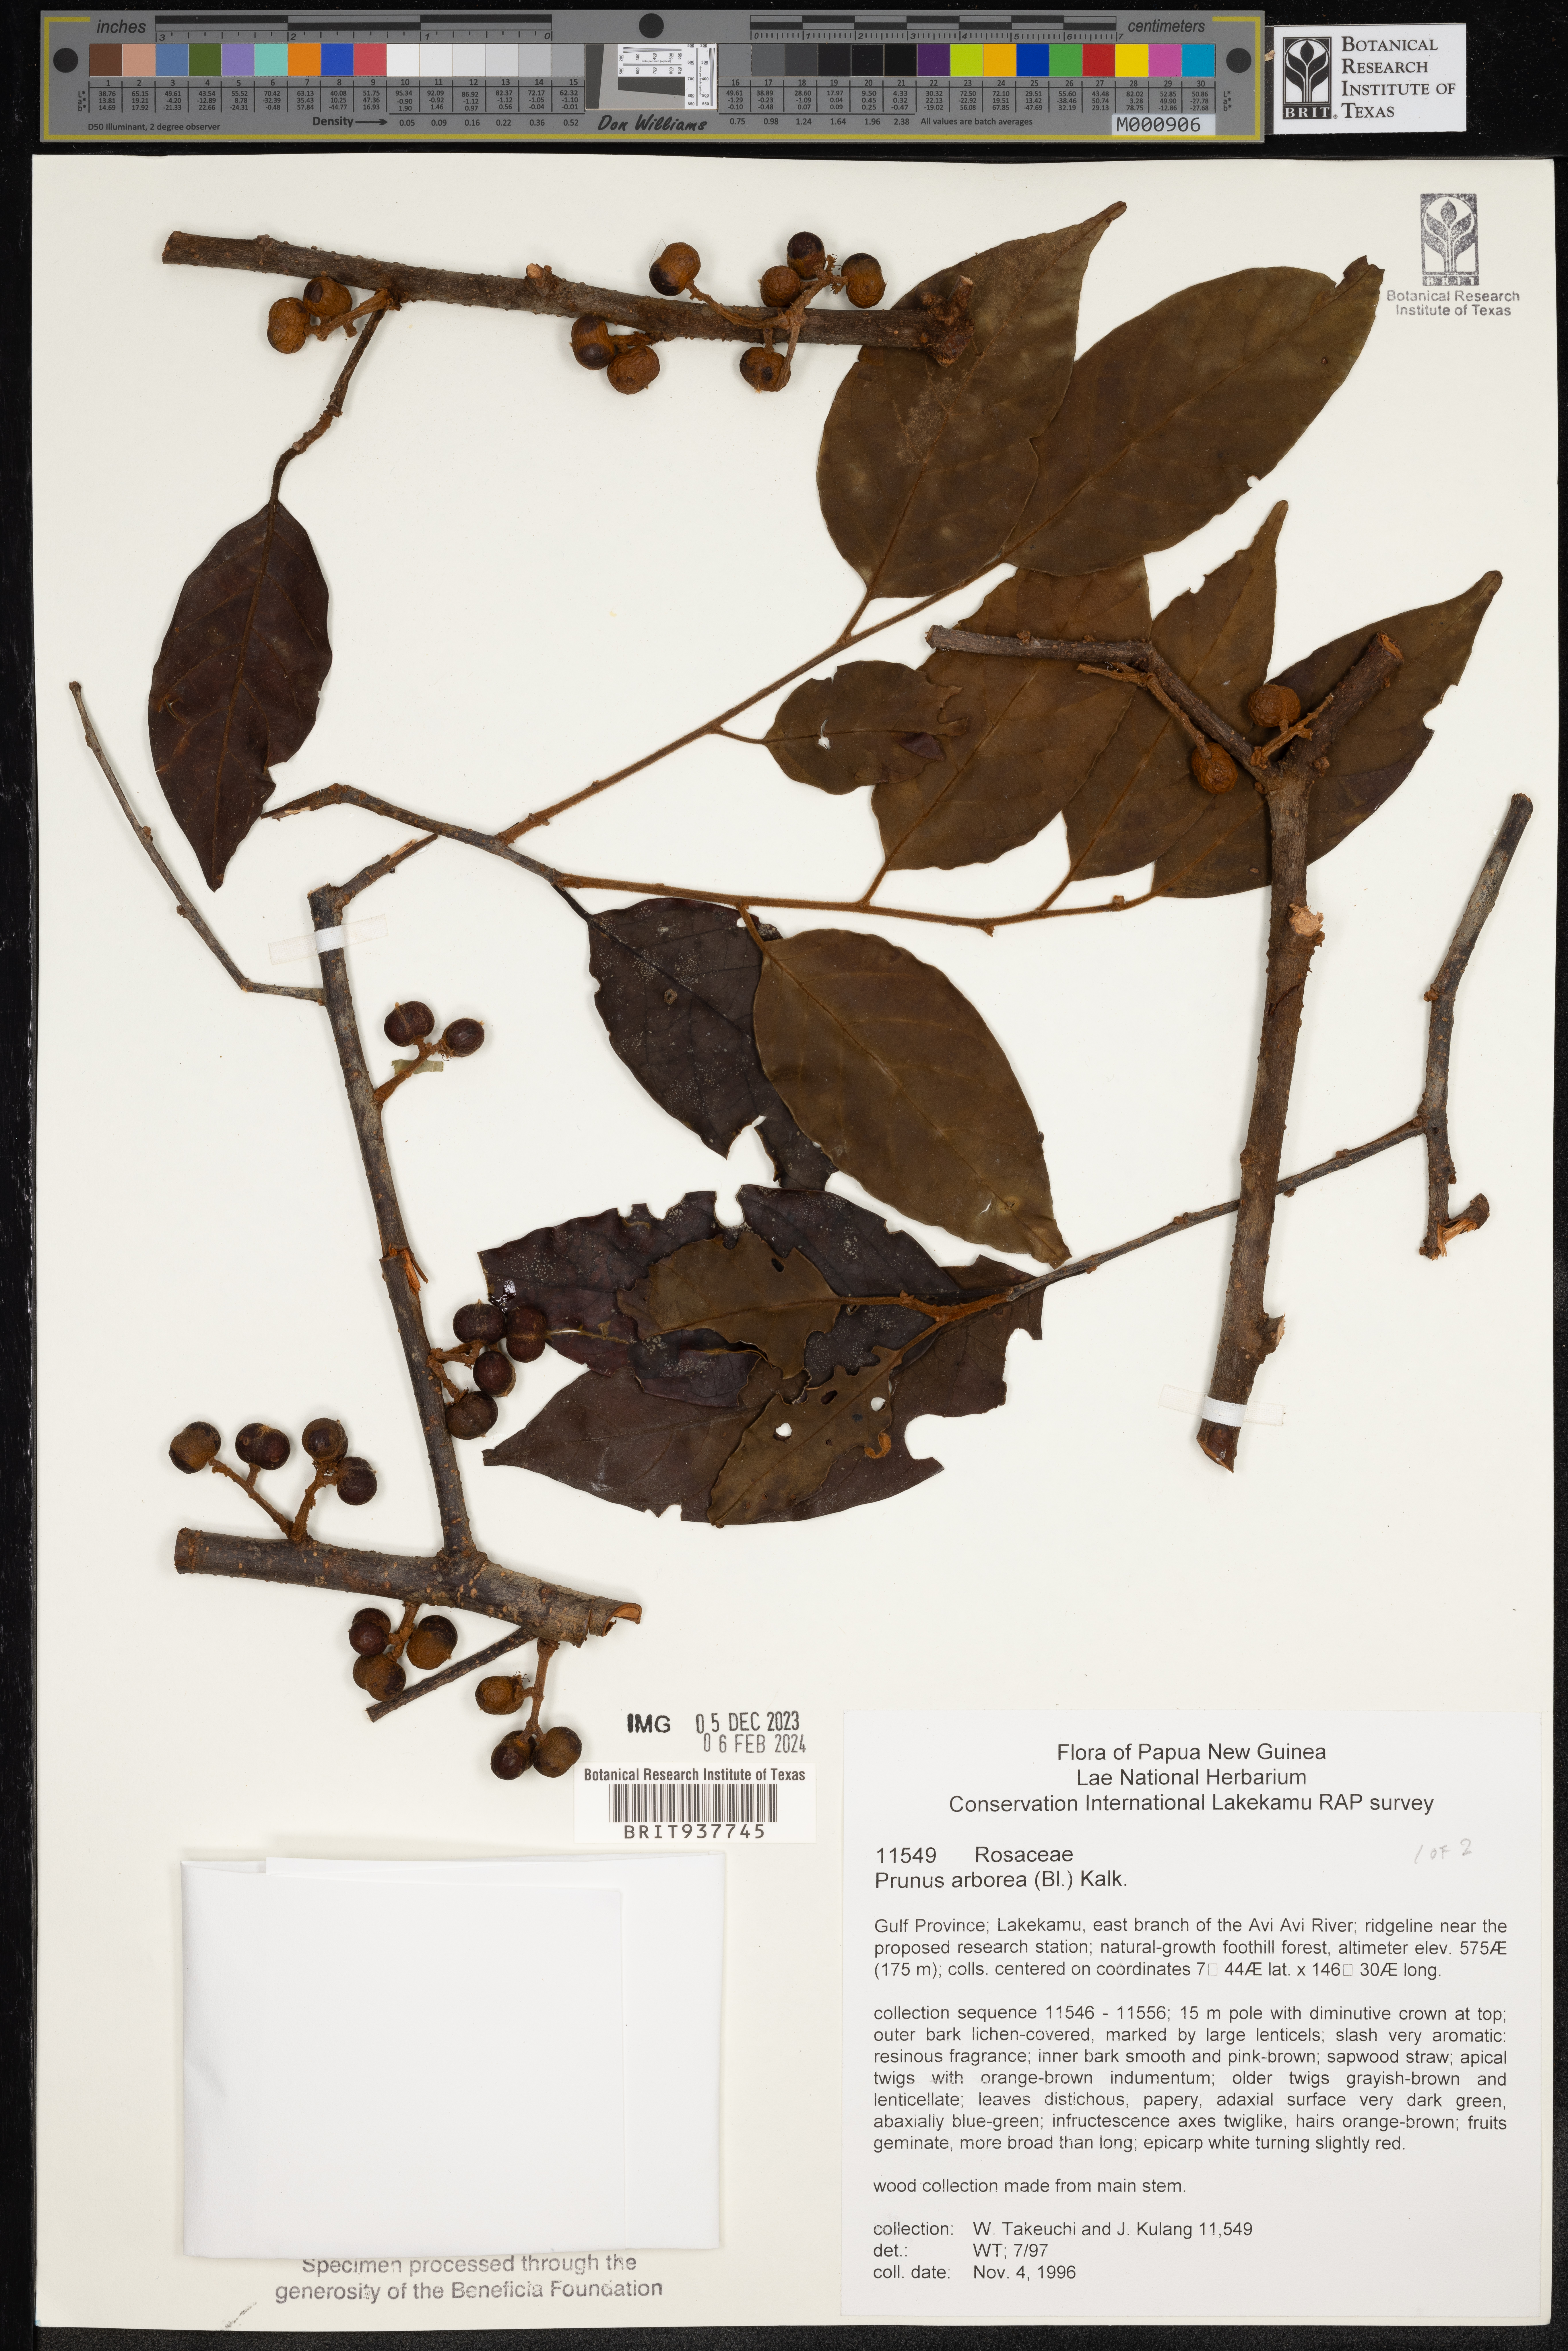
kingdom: Plantae
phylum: Tracheophyta
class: Magnoliopsida
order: Rosales
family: Rosaceae
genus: Prunus
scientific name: Prunus
